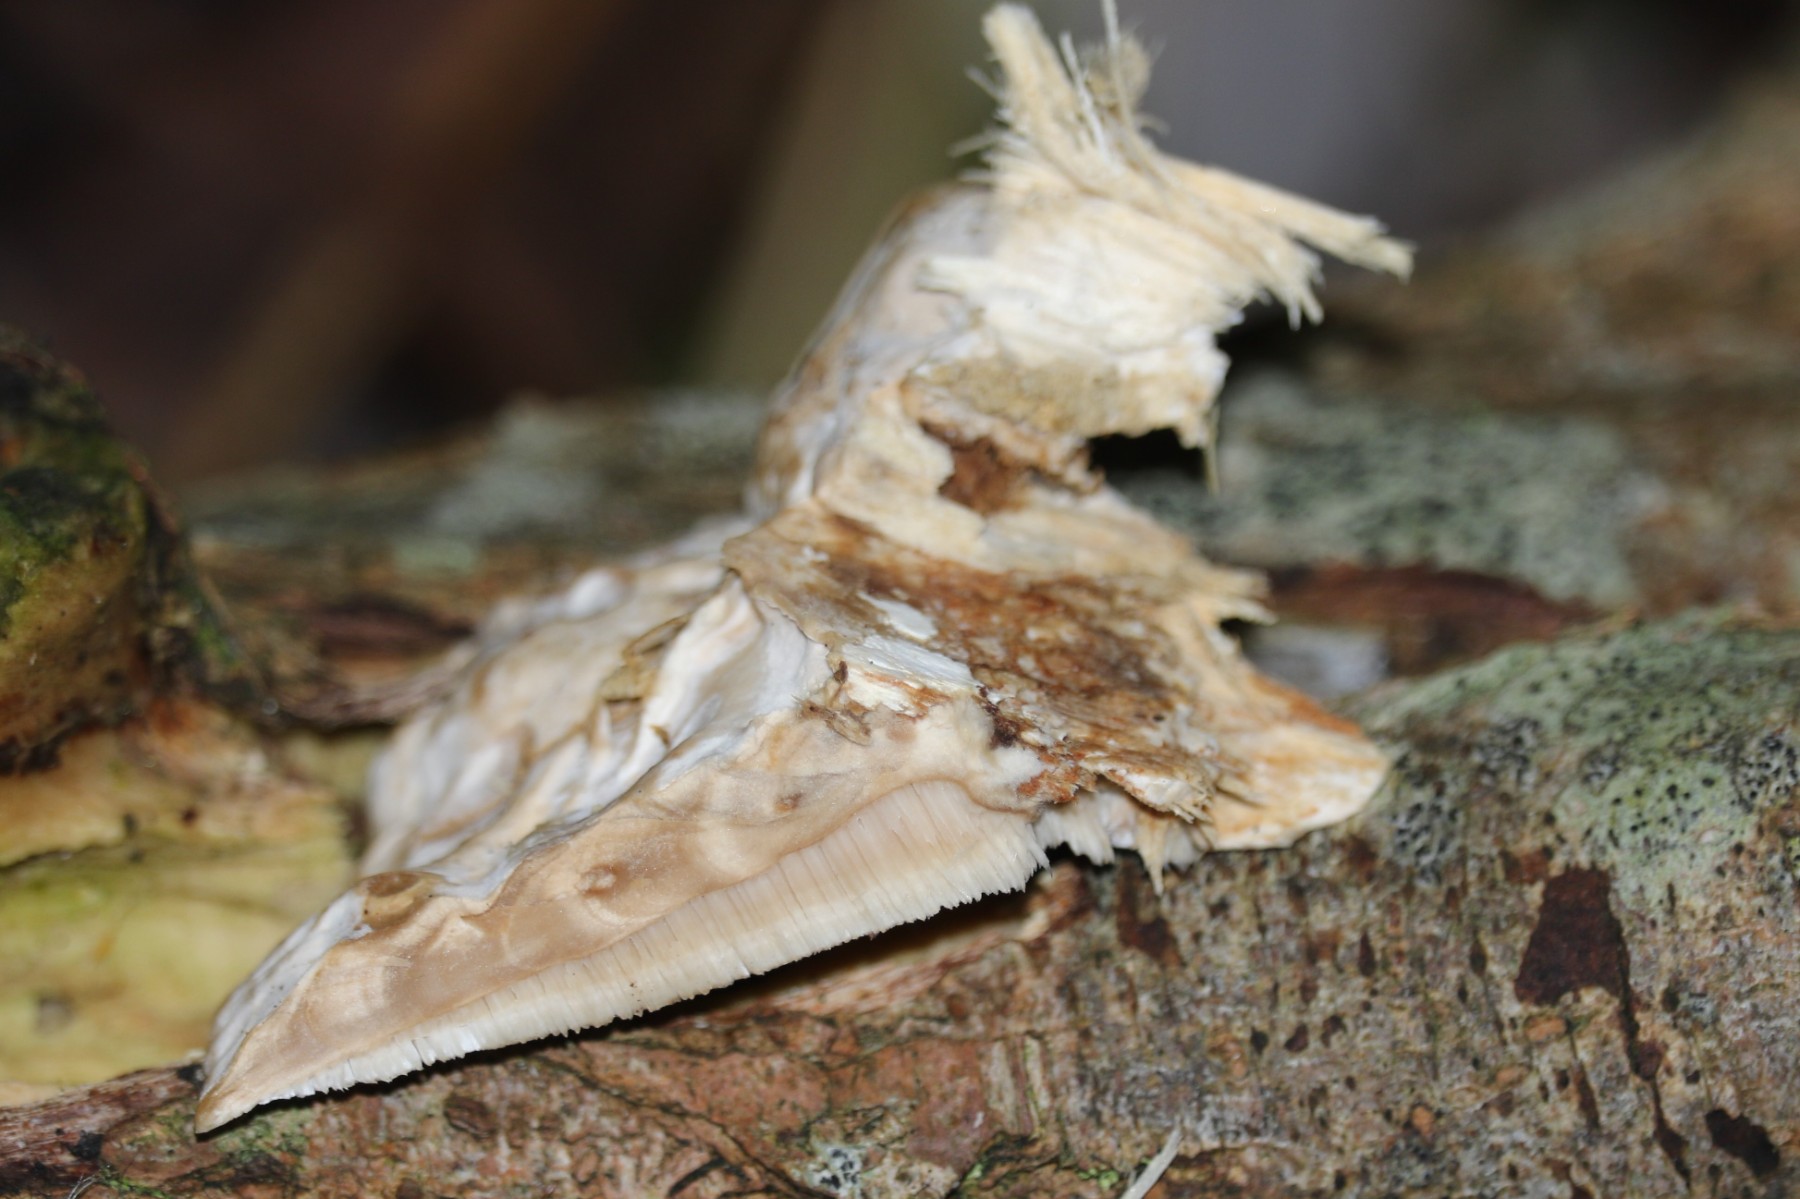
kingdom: Fungi
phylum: Basidiomycota
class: Agaricomycetes
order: Polyporales
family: Phanerochaetaceae
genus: Bjerkandera
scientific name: Bjerkandera fumosa
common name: grågul sodporesvamp
